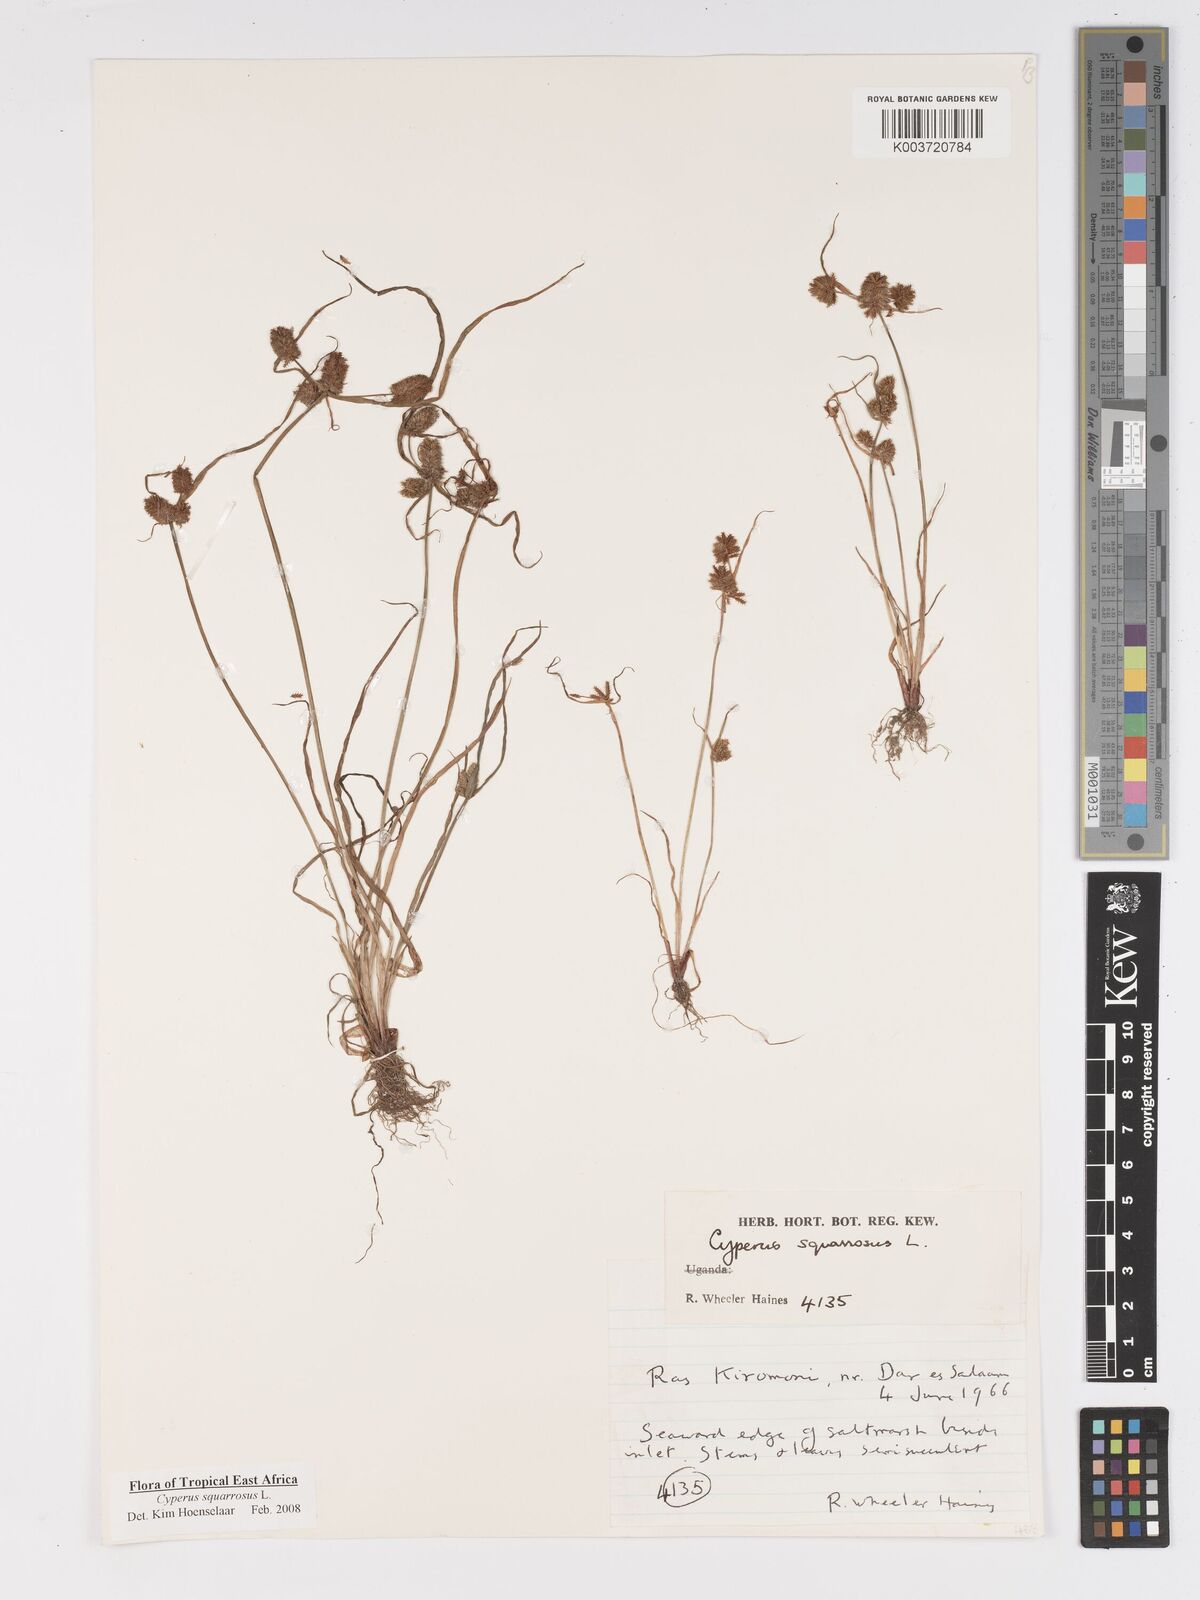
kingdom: Plantae
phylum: Tracheophyta
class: Liliopsida
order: Poales
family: Cyperaceae
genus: Cyperus
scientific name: Cyperus squarrosus
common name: Awned cyperus
